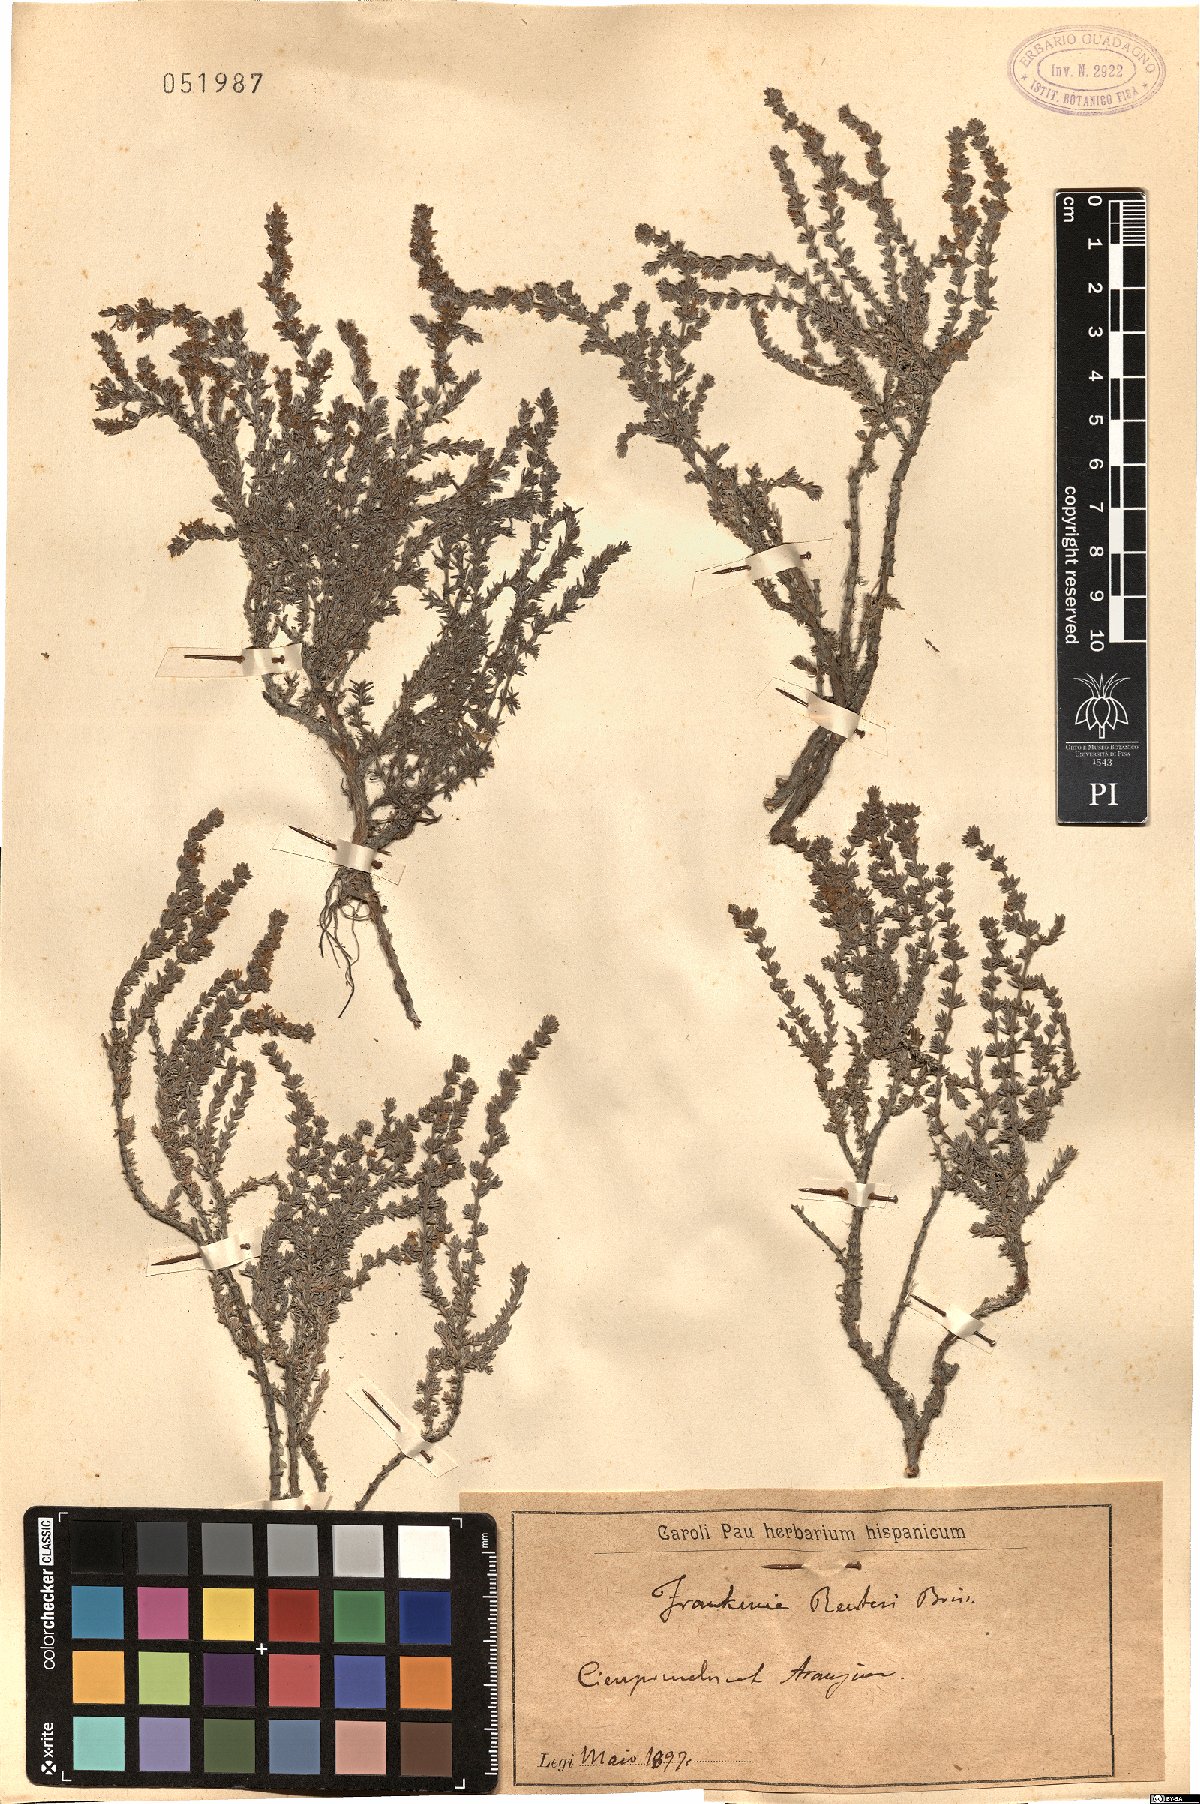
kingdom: Plantae
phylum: Tracheophyta
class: Magnoliopsida
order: Caryophyllales
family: Frankeniaceae
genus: Frankenia
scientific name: Frankenia thymifolia
